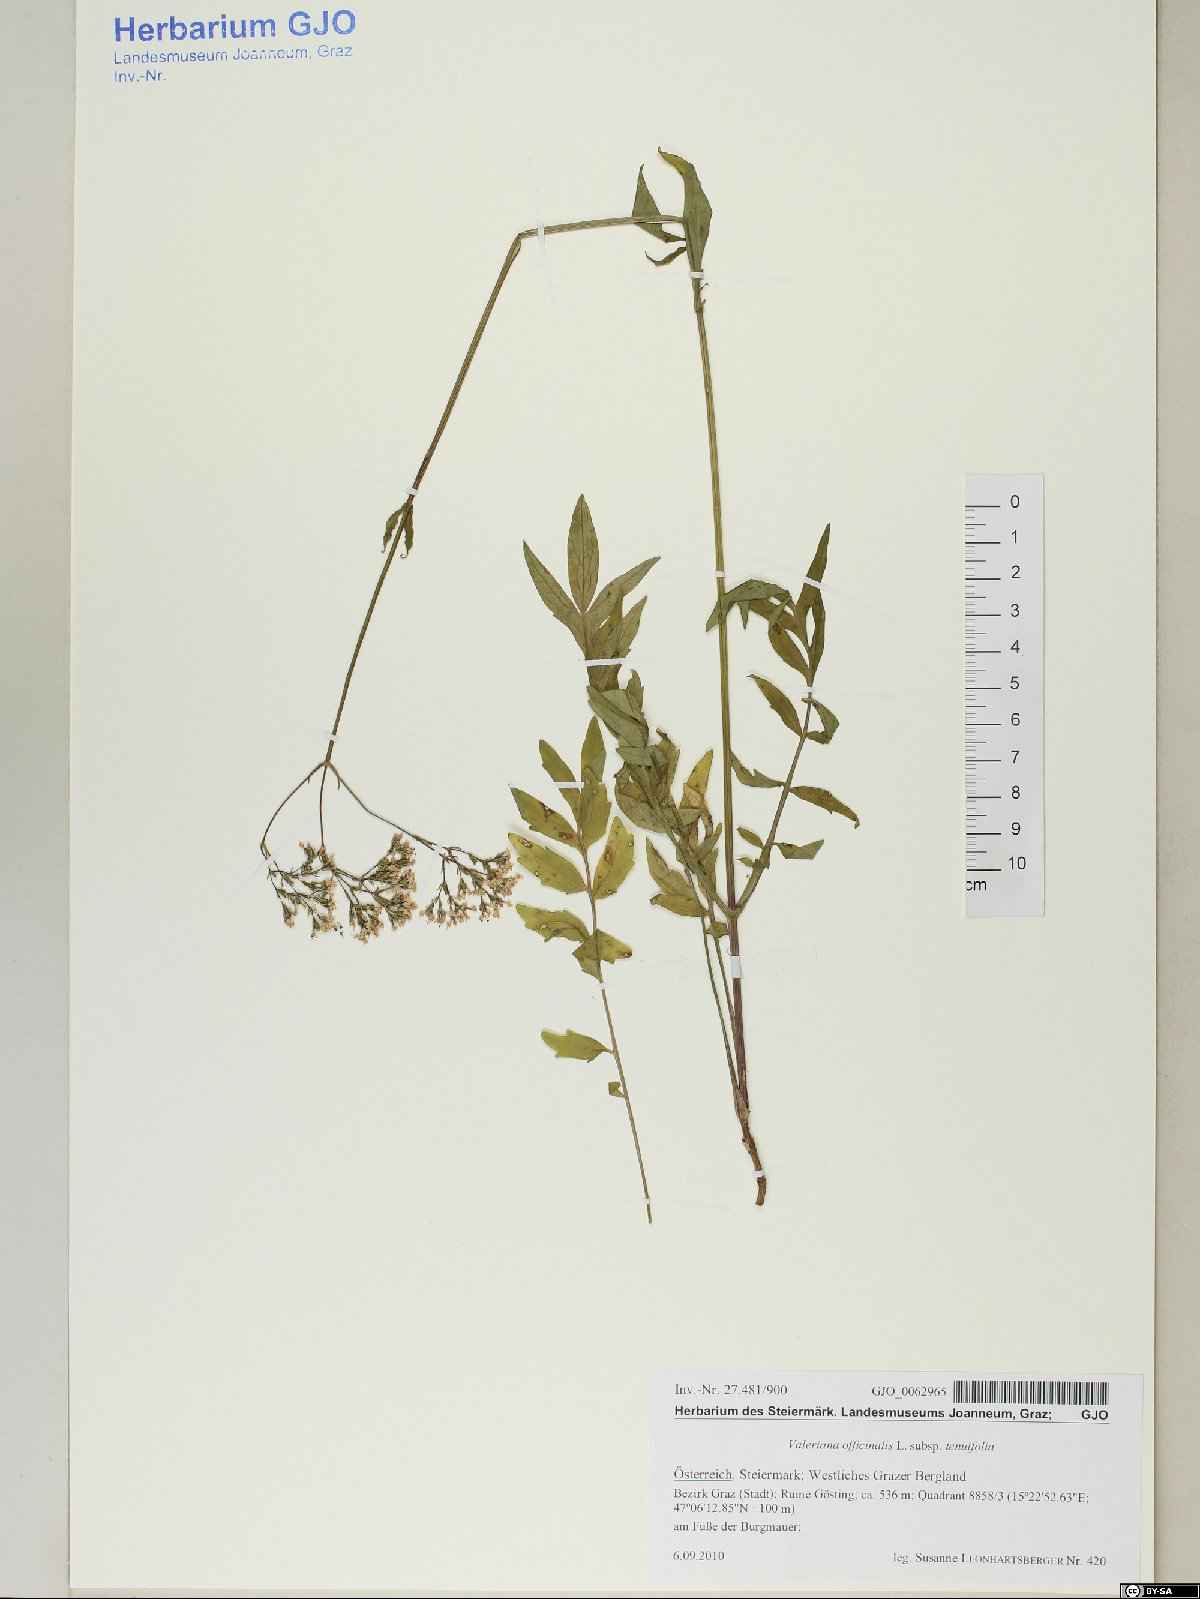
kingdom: Plantae
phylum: Tracheophyta
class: Magnoliopsida
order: Dipsacales
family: Caprifoliaceae
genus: Valeriana
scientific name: Valeriana officinalis
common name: Common valerian
